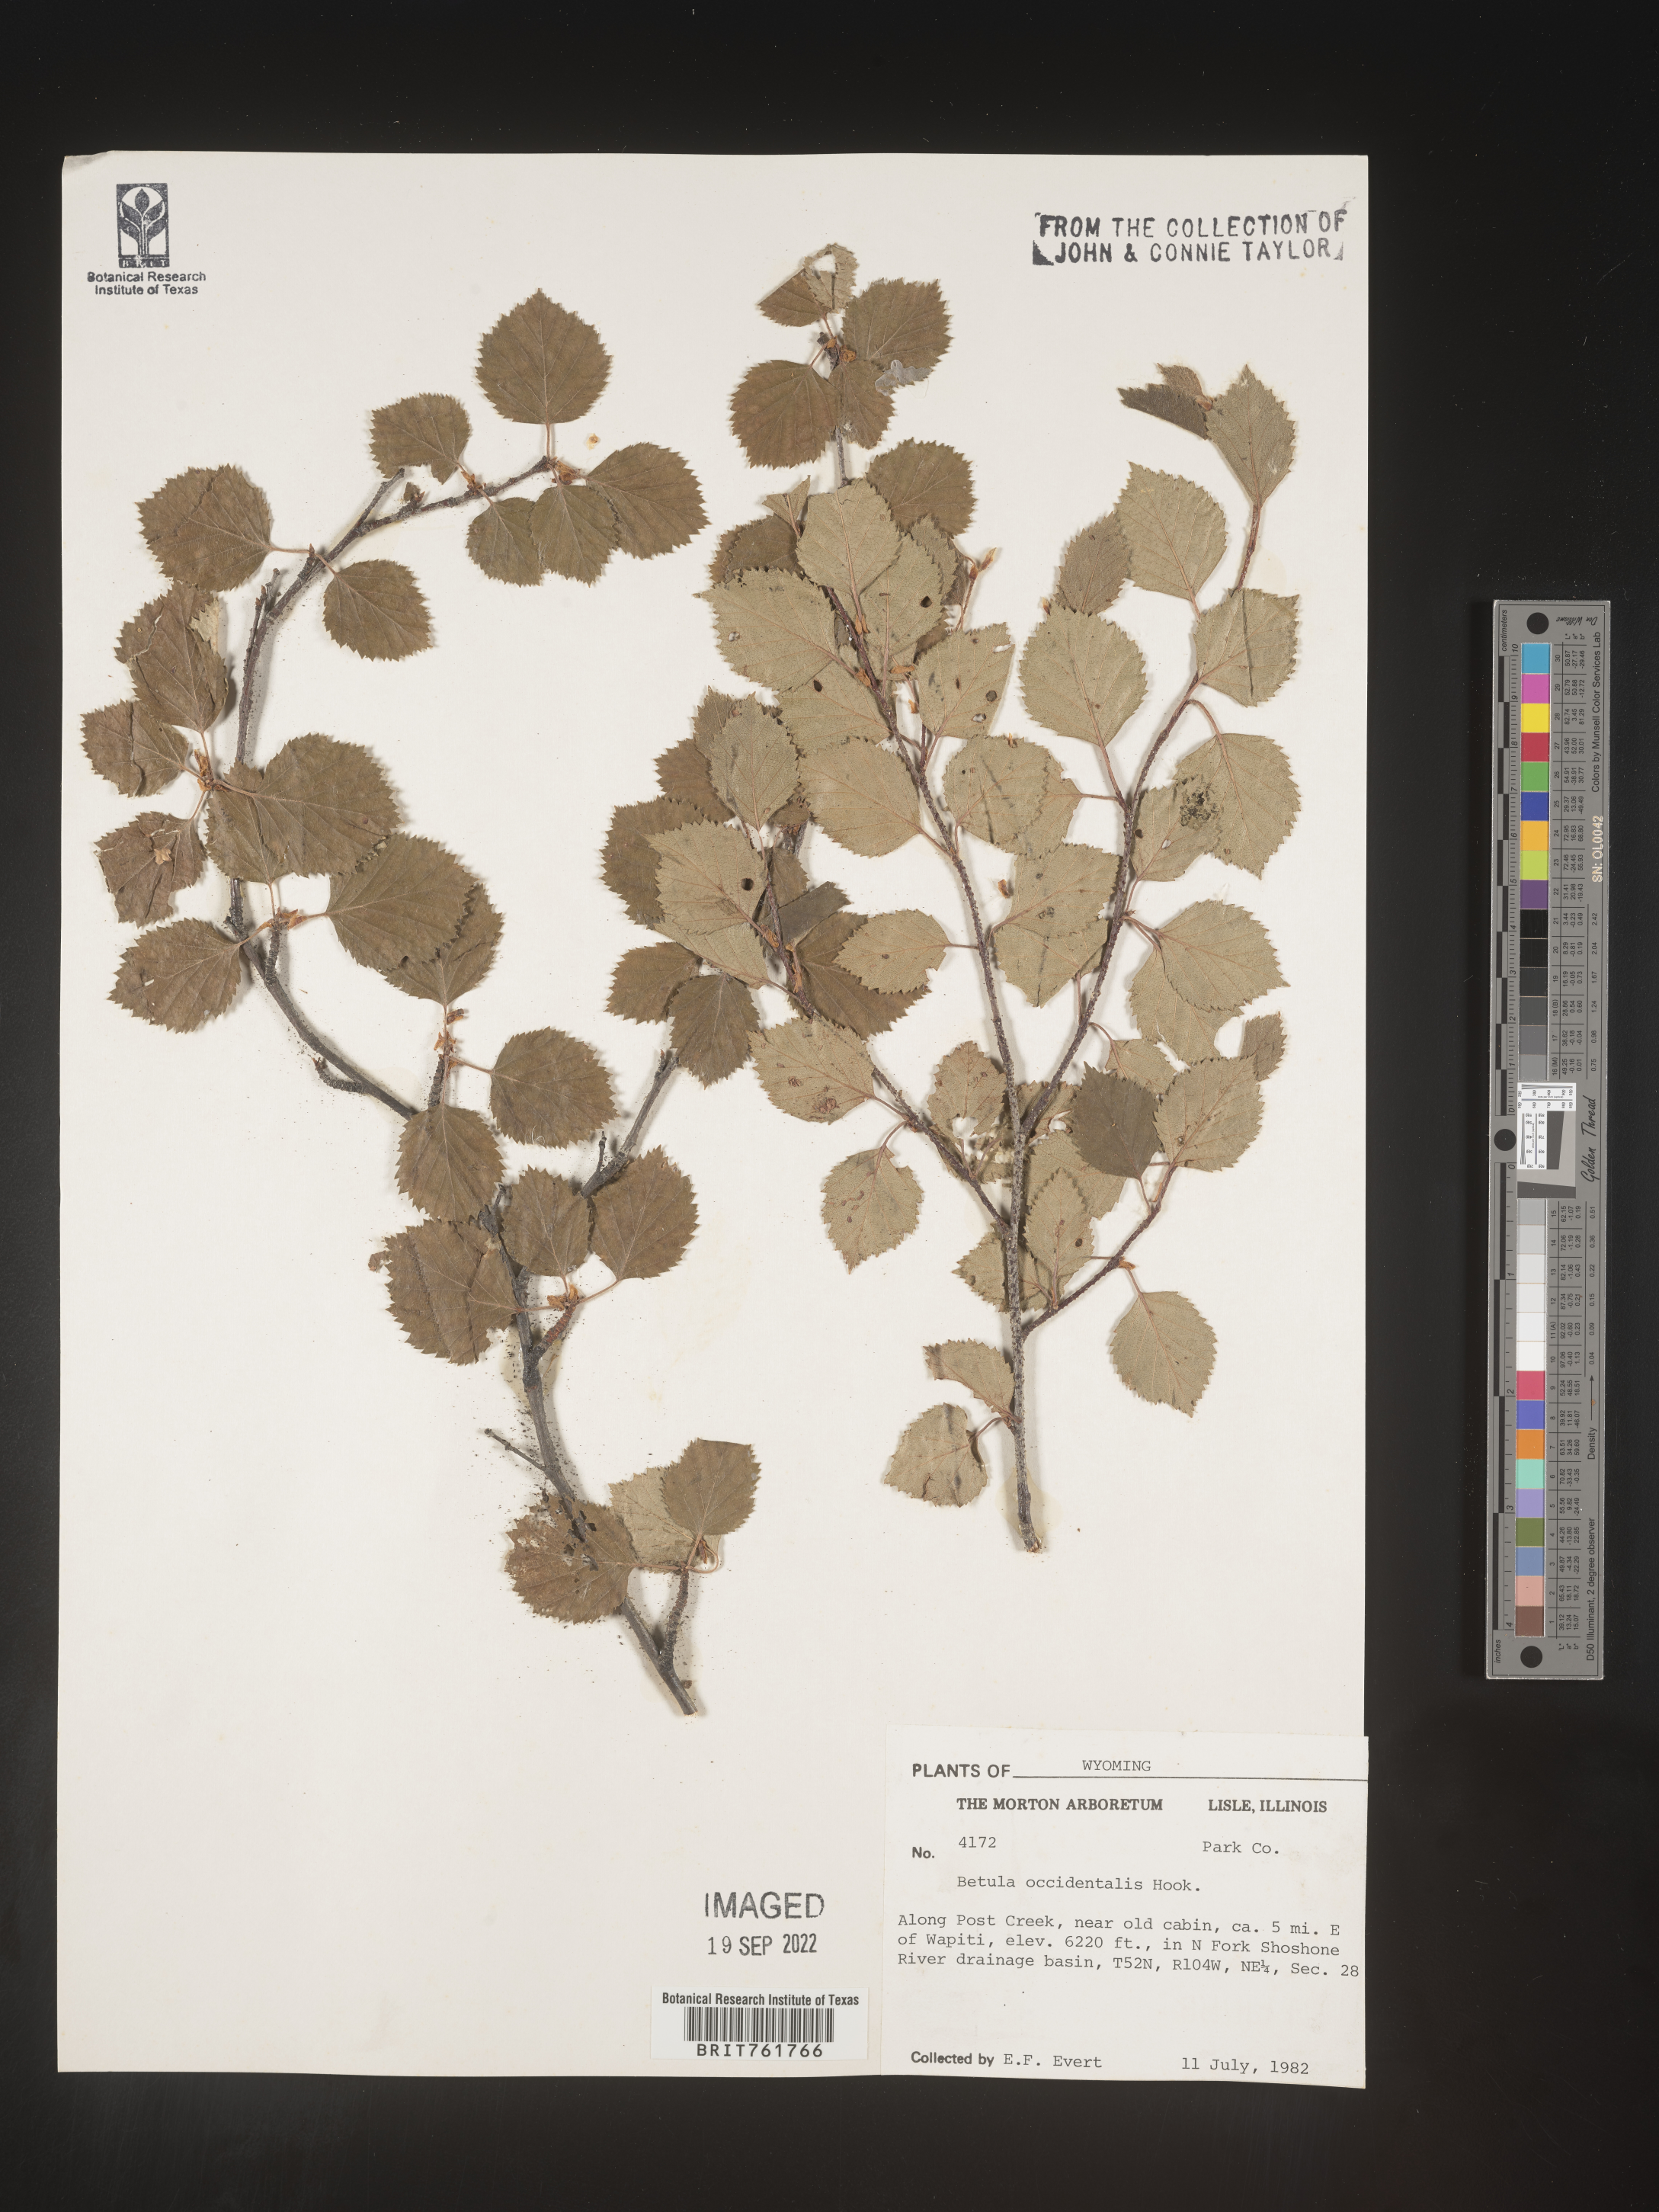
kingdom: Plantae
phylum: Tracheophyta
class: Magnoliopsida
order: Fagales
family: Betulaceae
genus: Betula
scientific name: Betula occidentalis
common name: River birch
